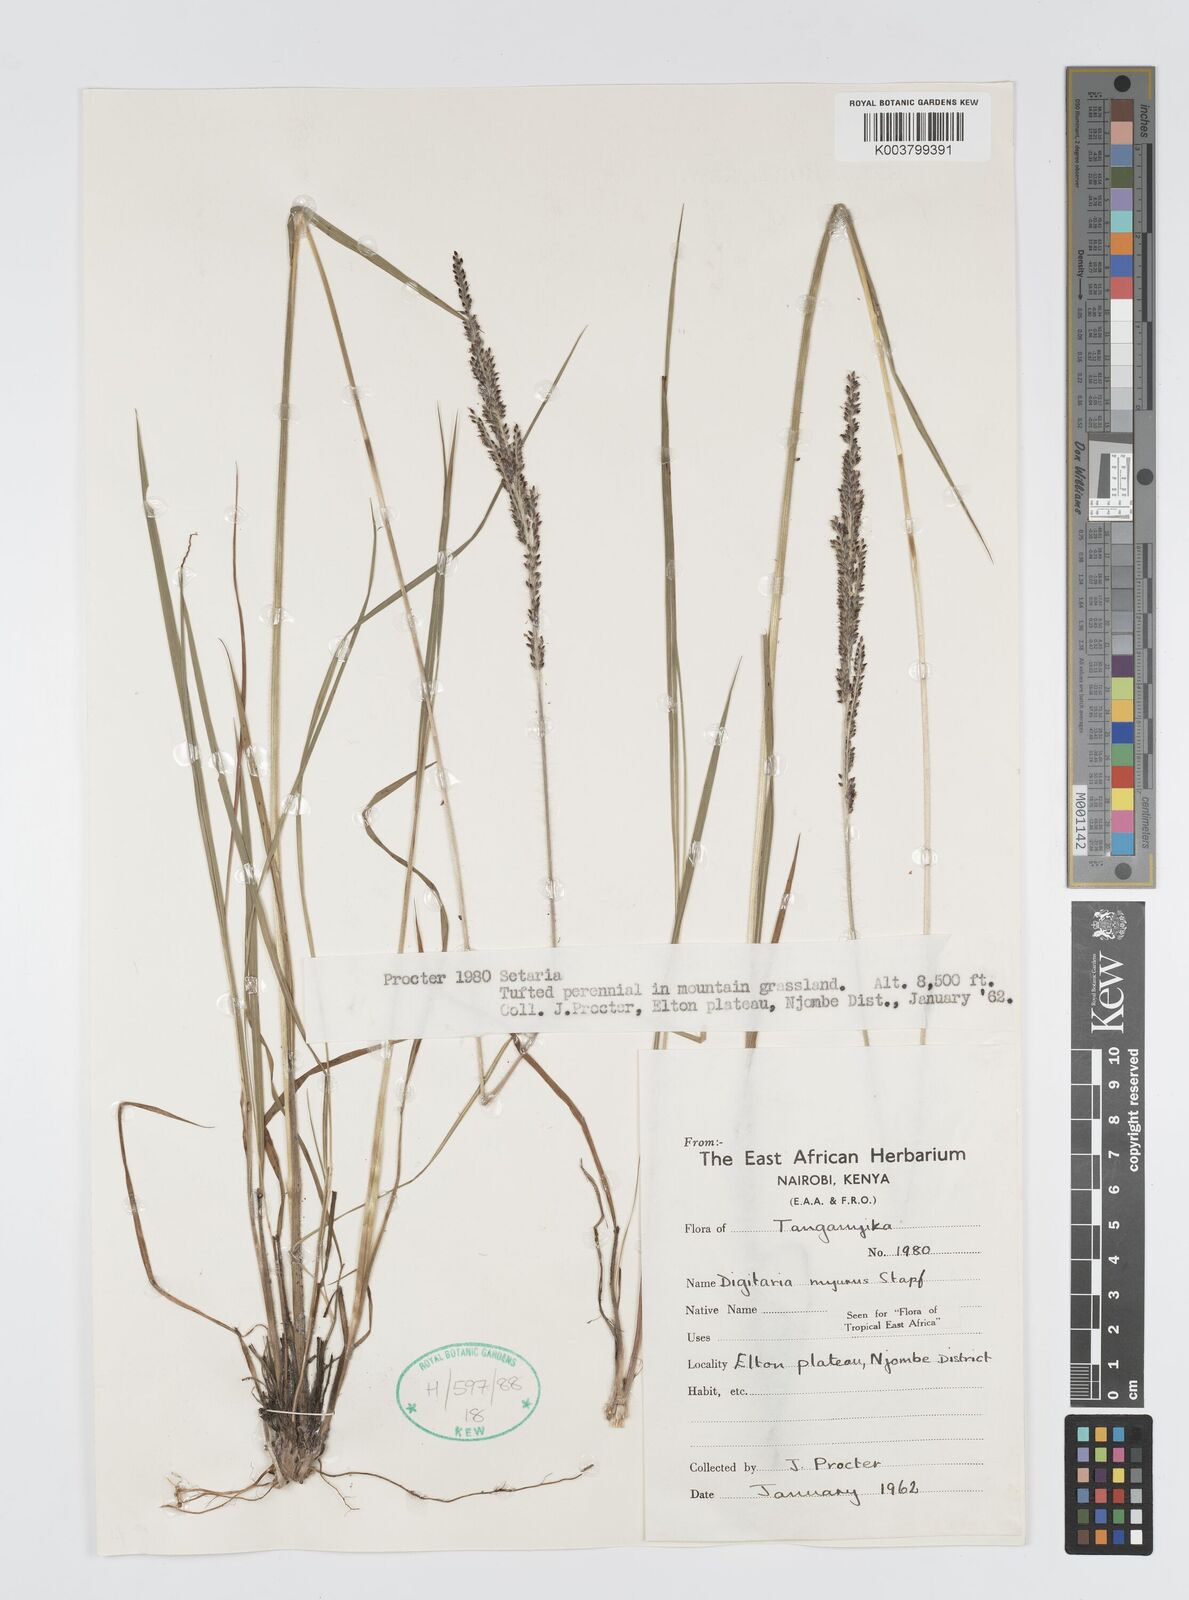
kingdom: Plantae
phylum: Tracheophyta
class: Liliopsida
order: Poales
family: Poaceae
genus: Digitaria
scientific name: Digitaria myurus
